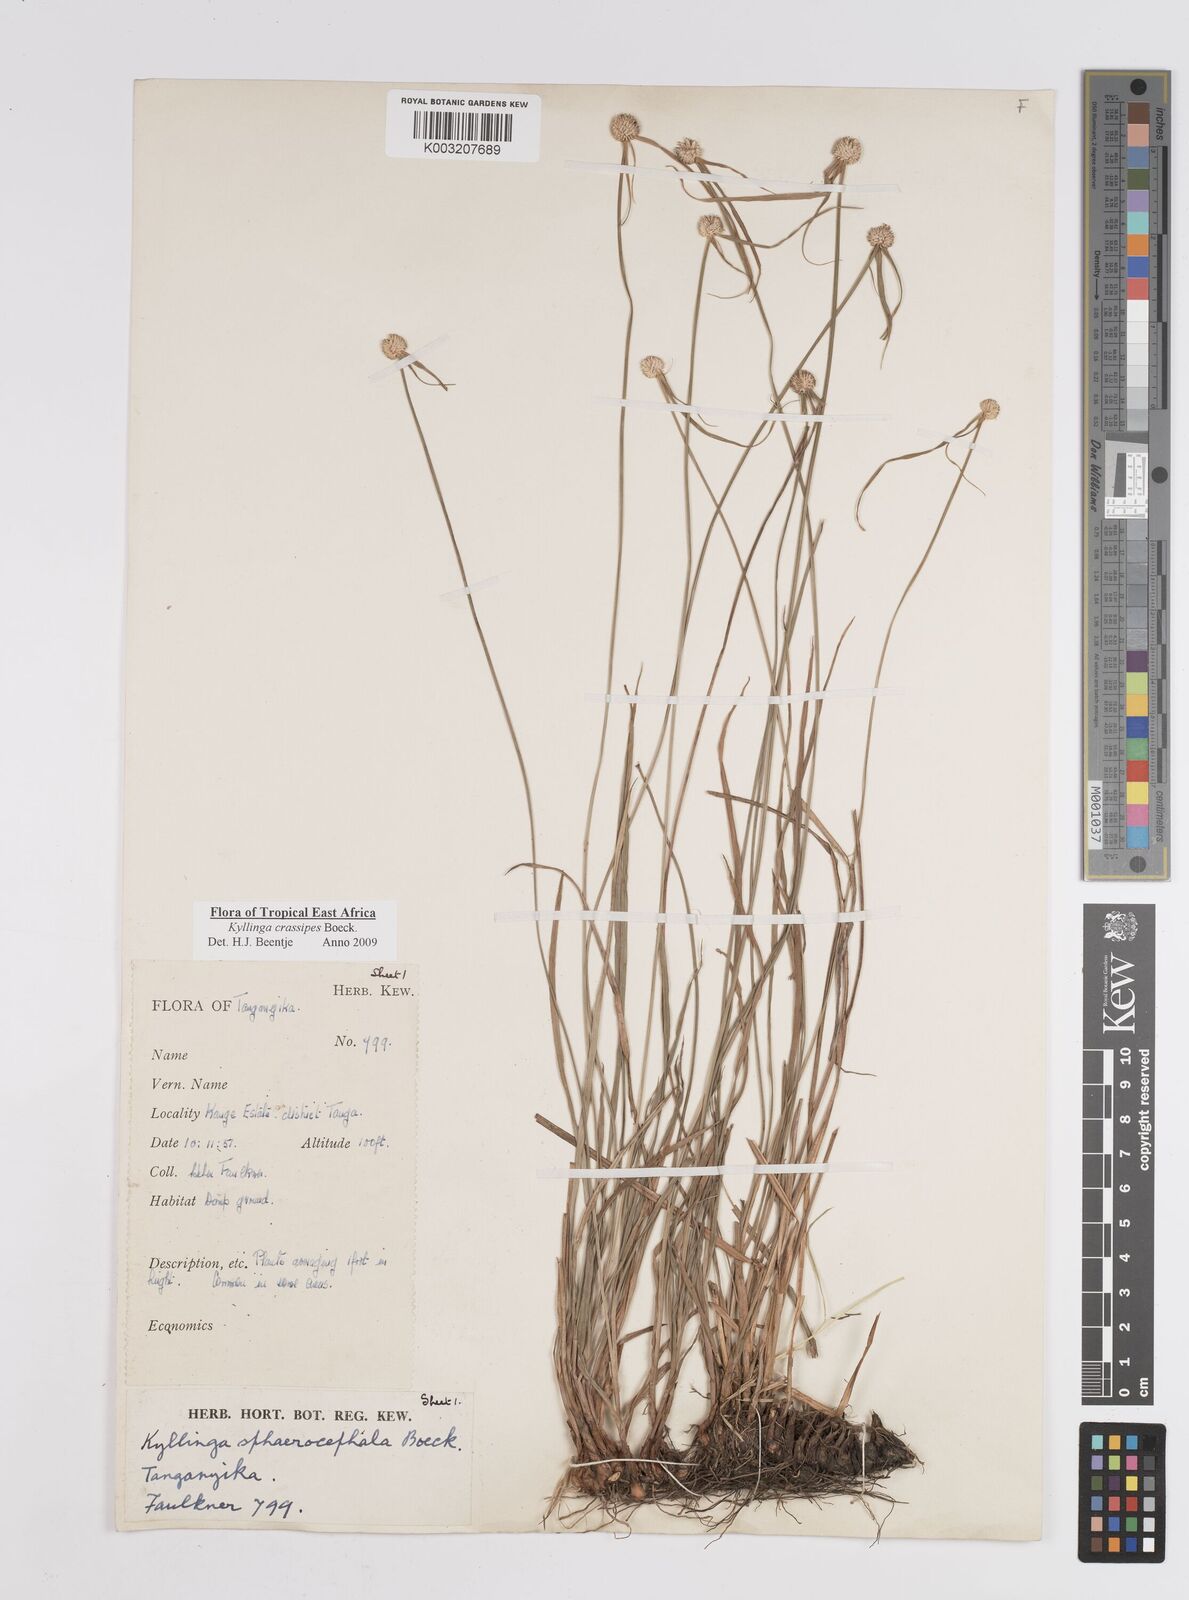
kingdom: Plantae
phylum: Tracheophyta
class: Liliopsida
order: Poales
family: Cyperaceae
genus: Cyperus
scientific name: Cyperus crassipes
